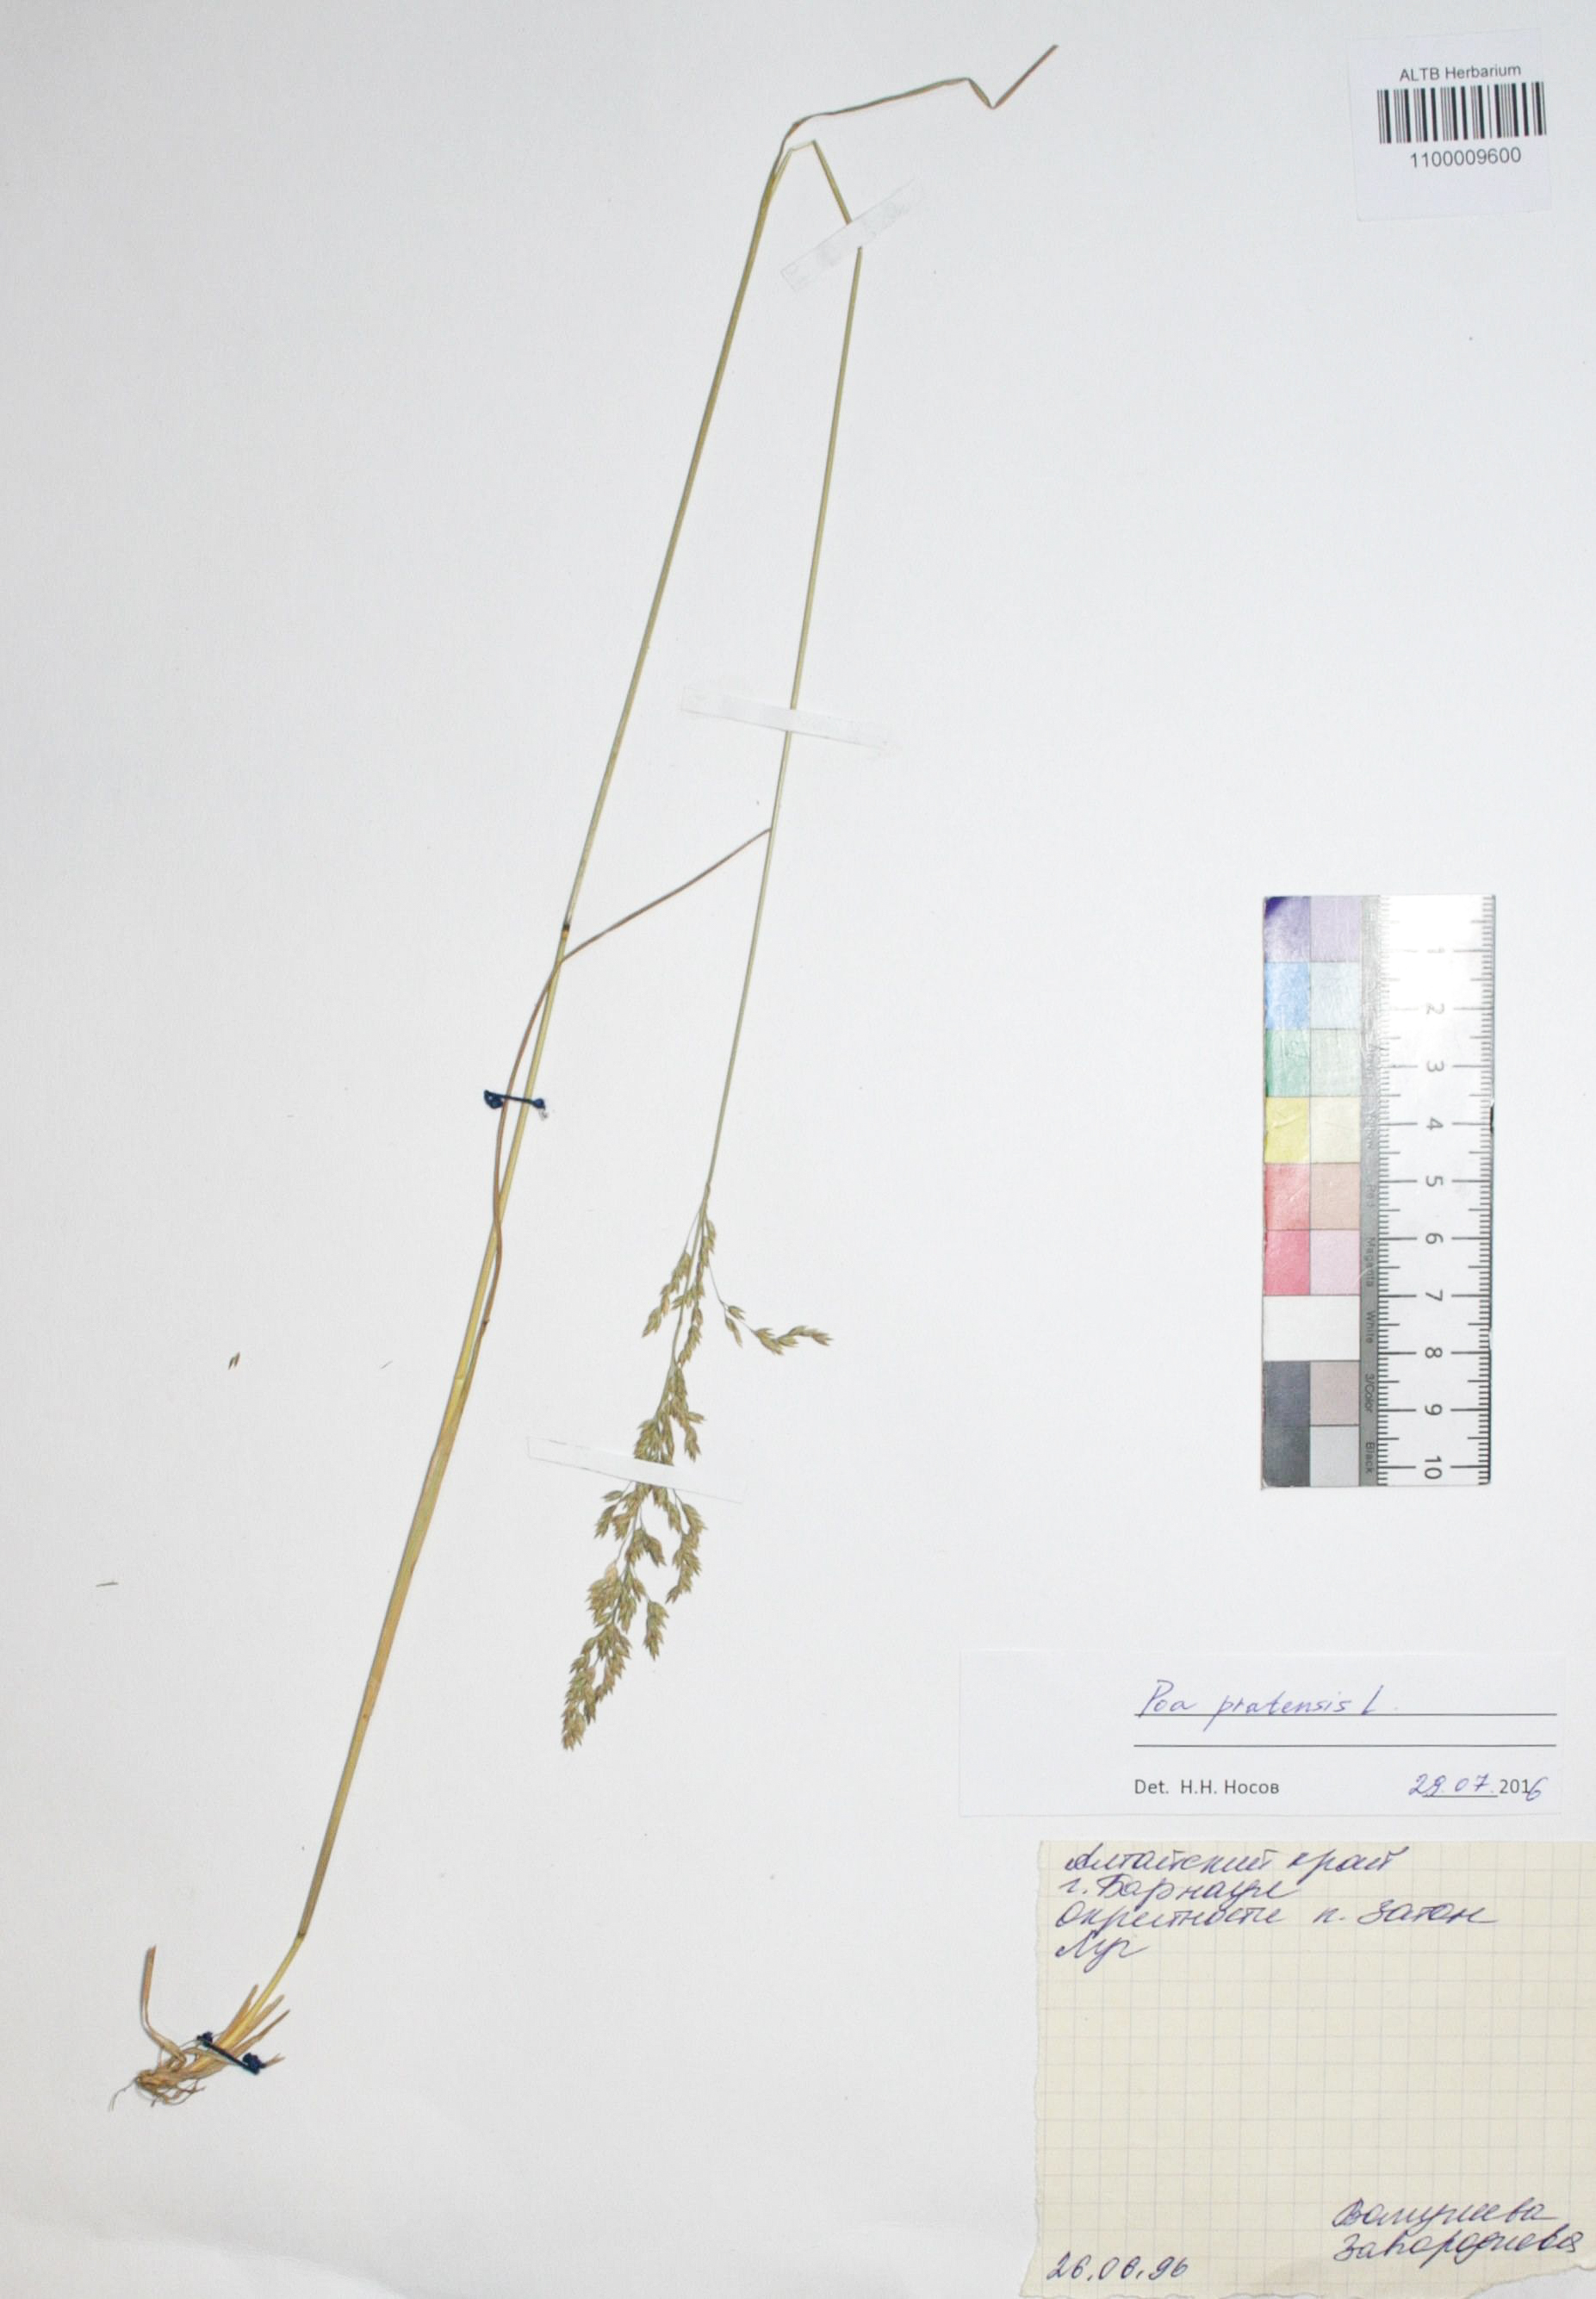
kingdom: Plantae
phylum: Tracheophyta
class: Liliopsida
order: Poales
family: Poaceae
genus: Poa
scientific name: Poa pratensis
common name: Kentucky bluegrass
